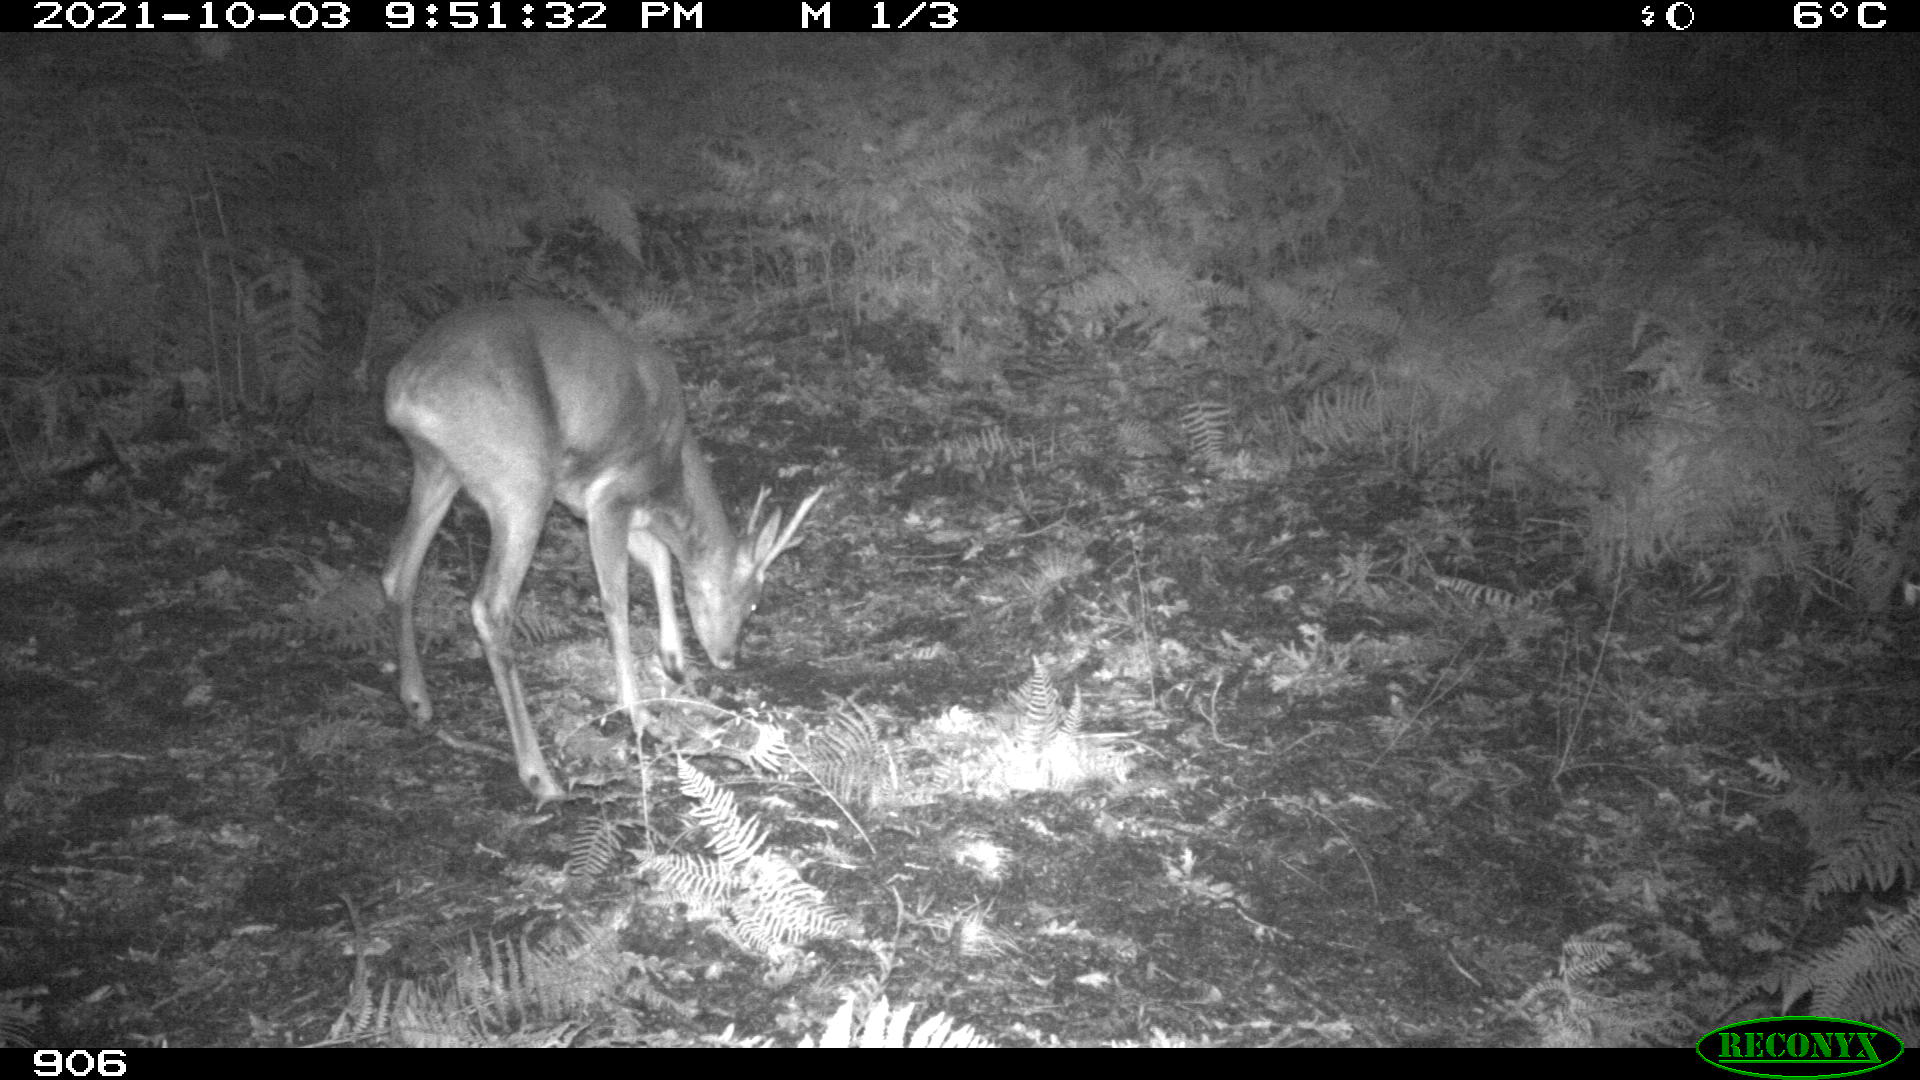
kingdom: Animalia
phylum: Chordata
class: Mammalia
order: Artiodactyla
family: Cervidae
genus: Capreolus
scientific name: Capreolus capreolus
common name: Western roe deer
